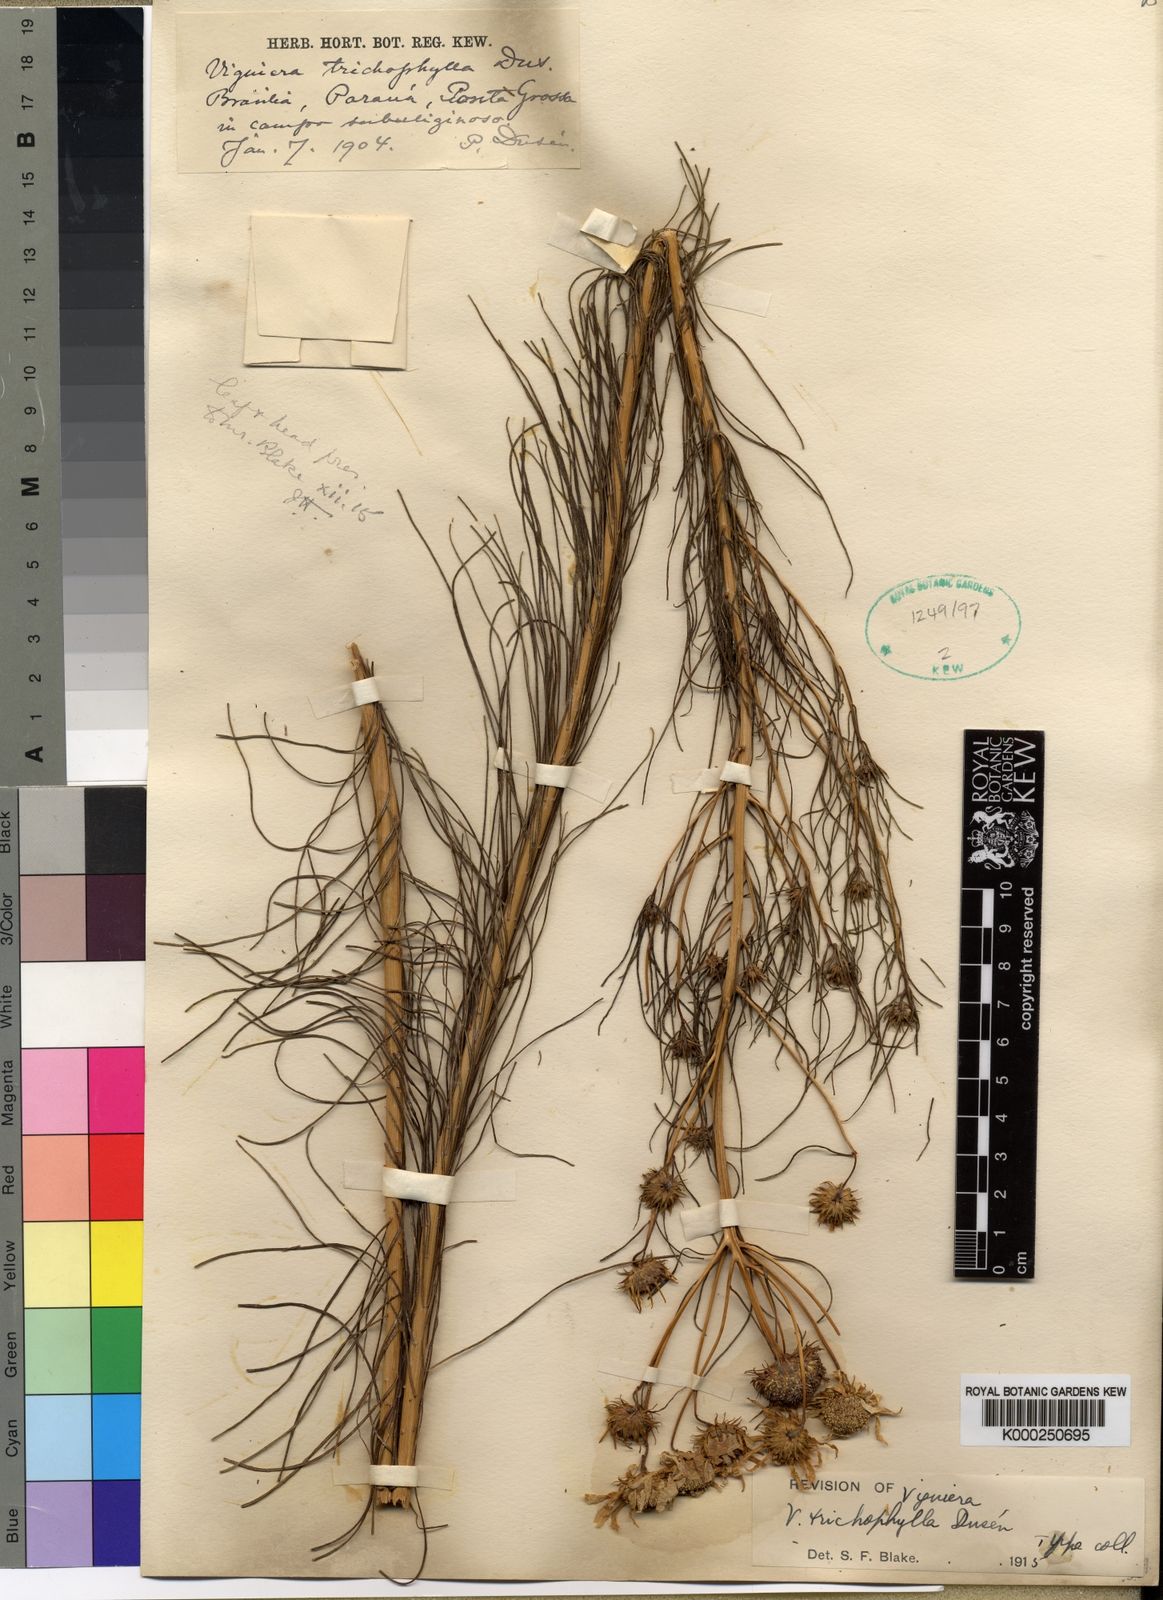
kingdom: Plantae
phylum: Tracheophyta
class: Magnoliopsida
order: Asterales
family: Asteraceae
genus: Aldama
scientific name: Aldama trichophylla
